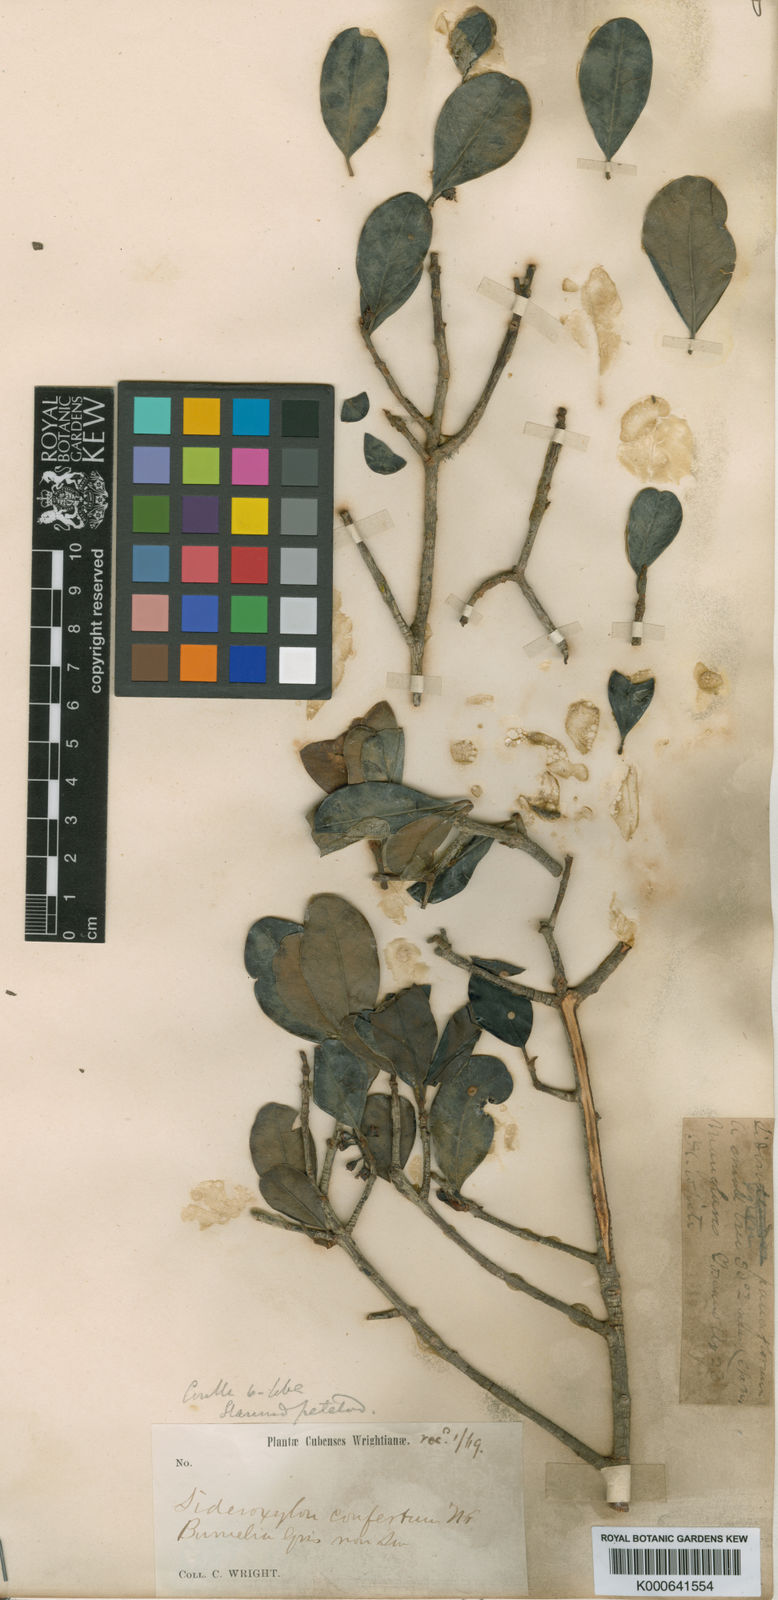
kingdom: Plantae
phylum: Tracheophyta
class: Magnoliopsida
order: Ericales
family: Sapotaceae
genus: Sideroxylon
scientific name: Sideroxylon cubense
